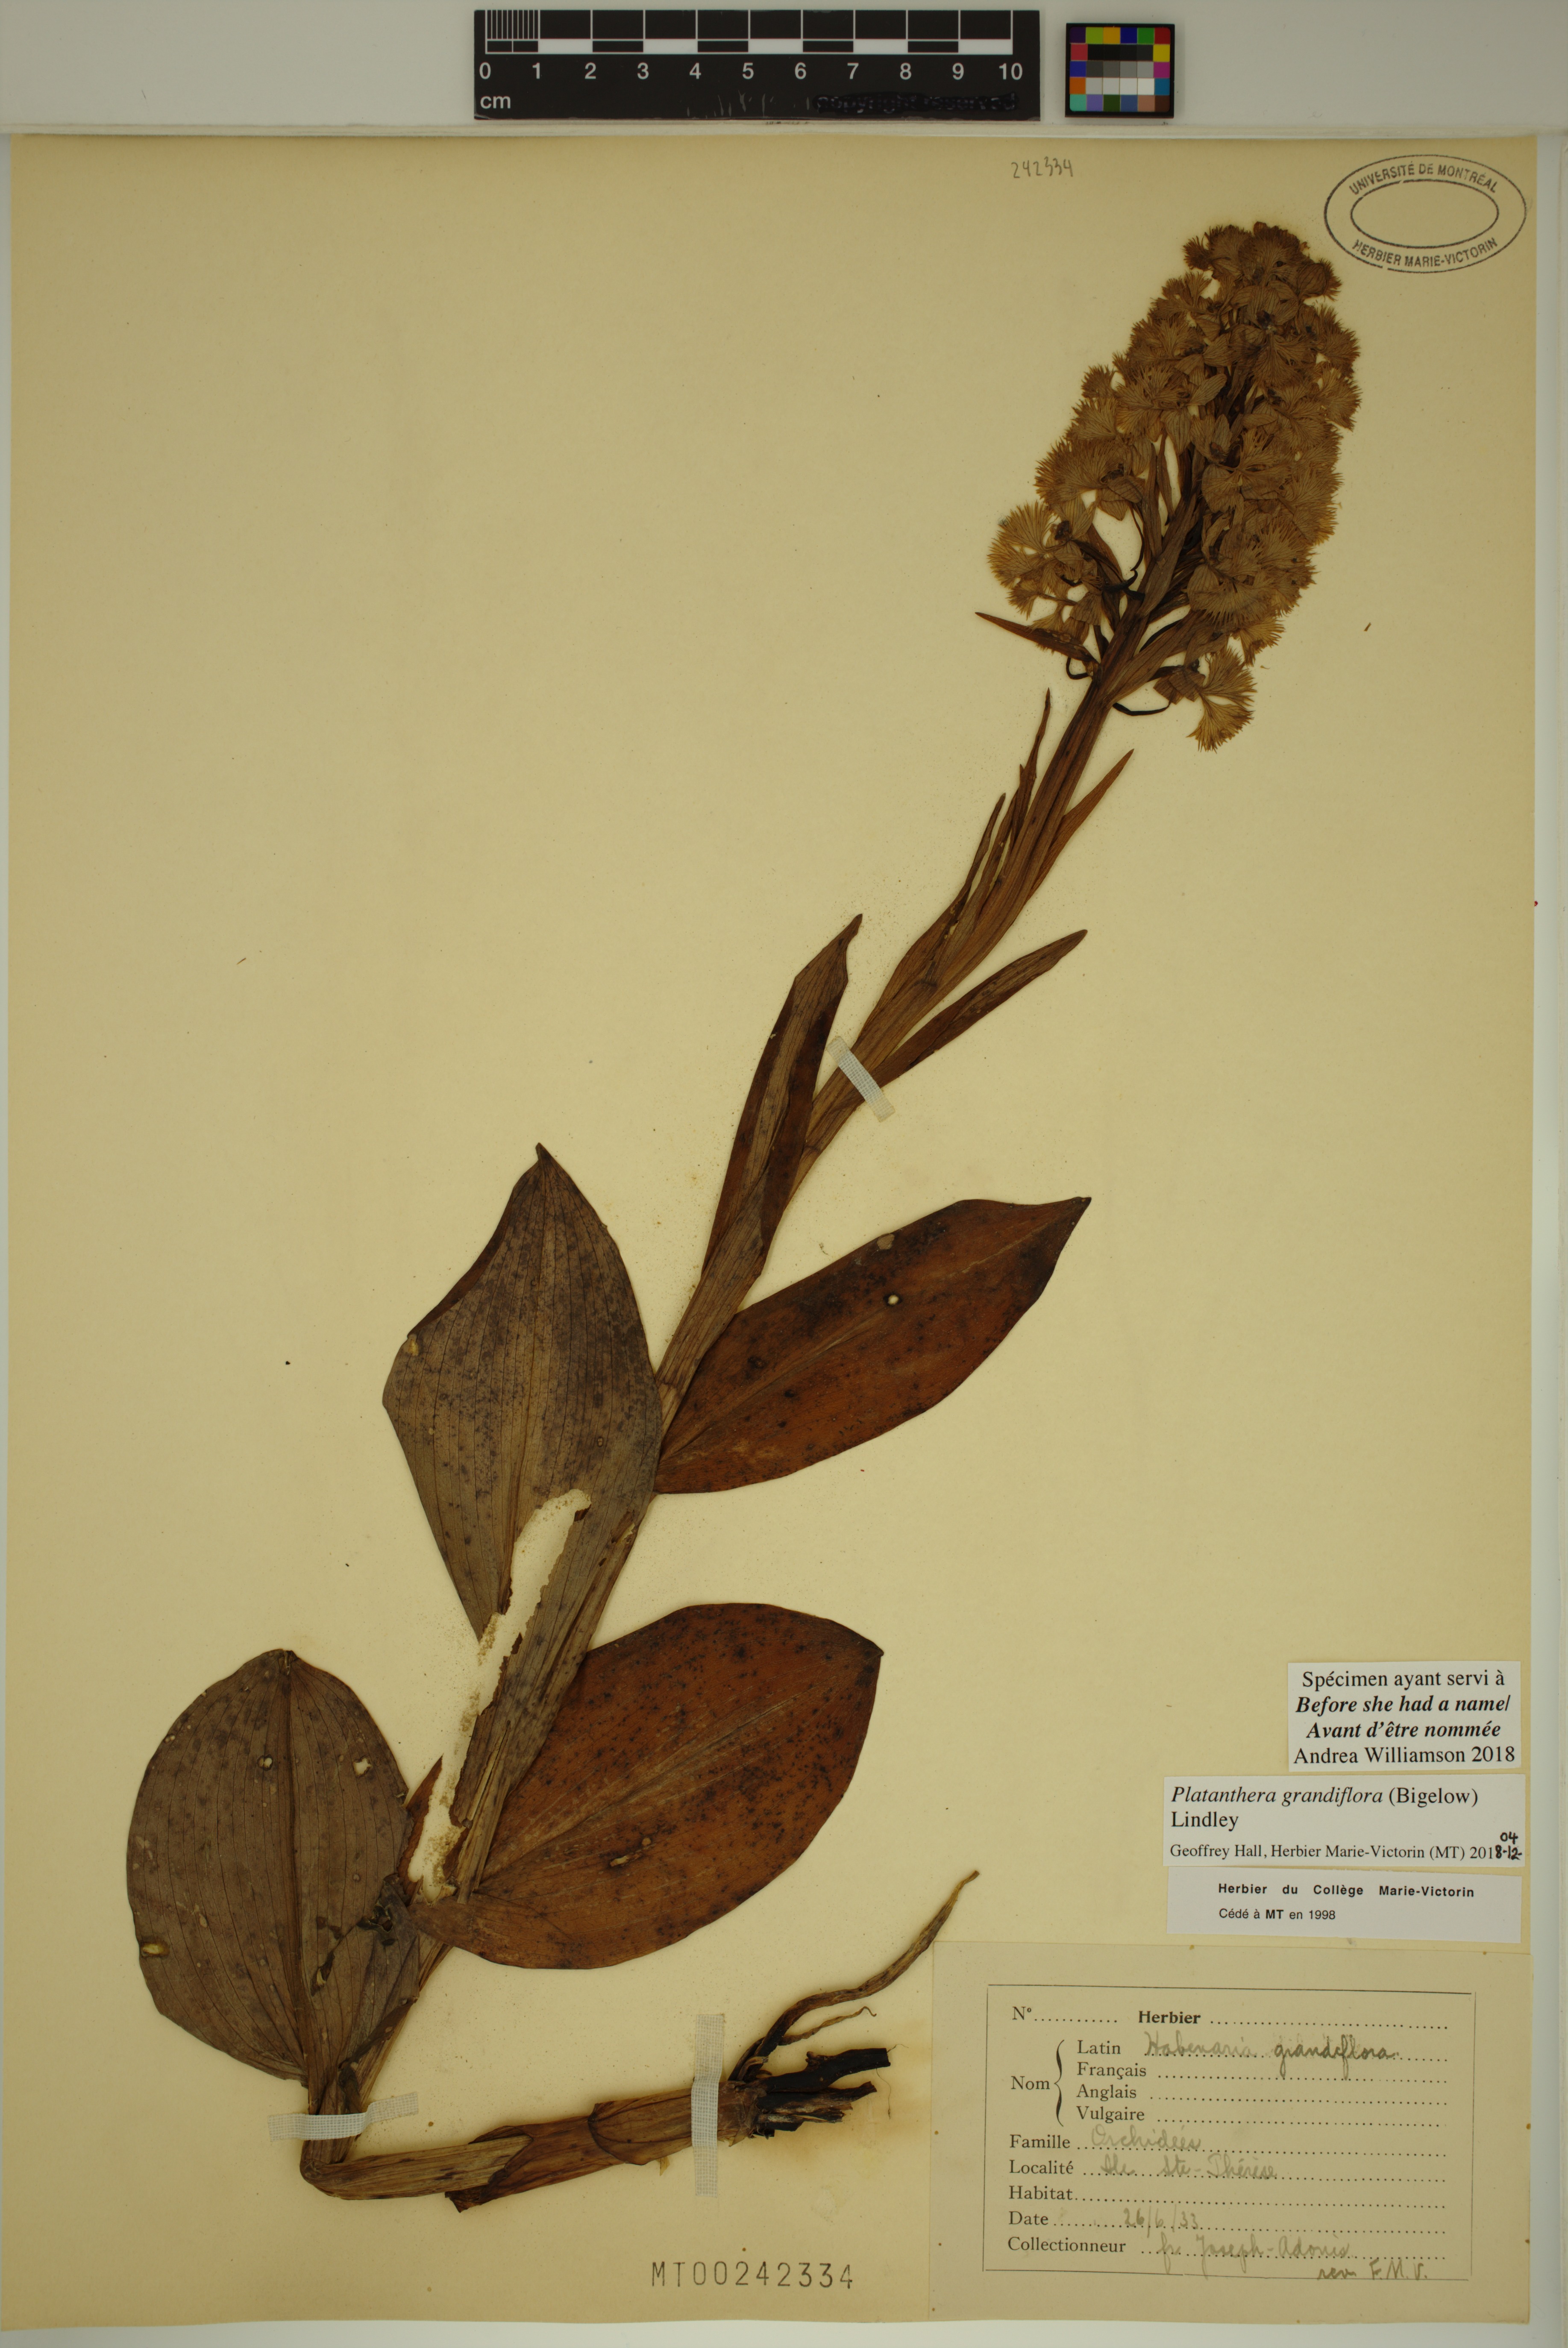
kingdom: Plantae
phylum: Tracheophyta
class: Liliopsida
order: Asparagales
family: Orchidaceae
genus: Platanthera
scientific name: Platanthera grandiflora
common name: Greater purple fringed orchid
